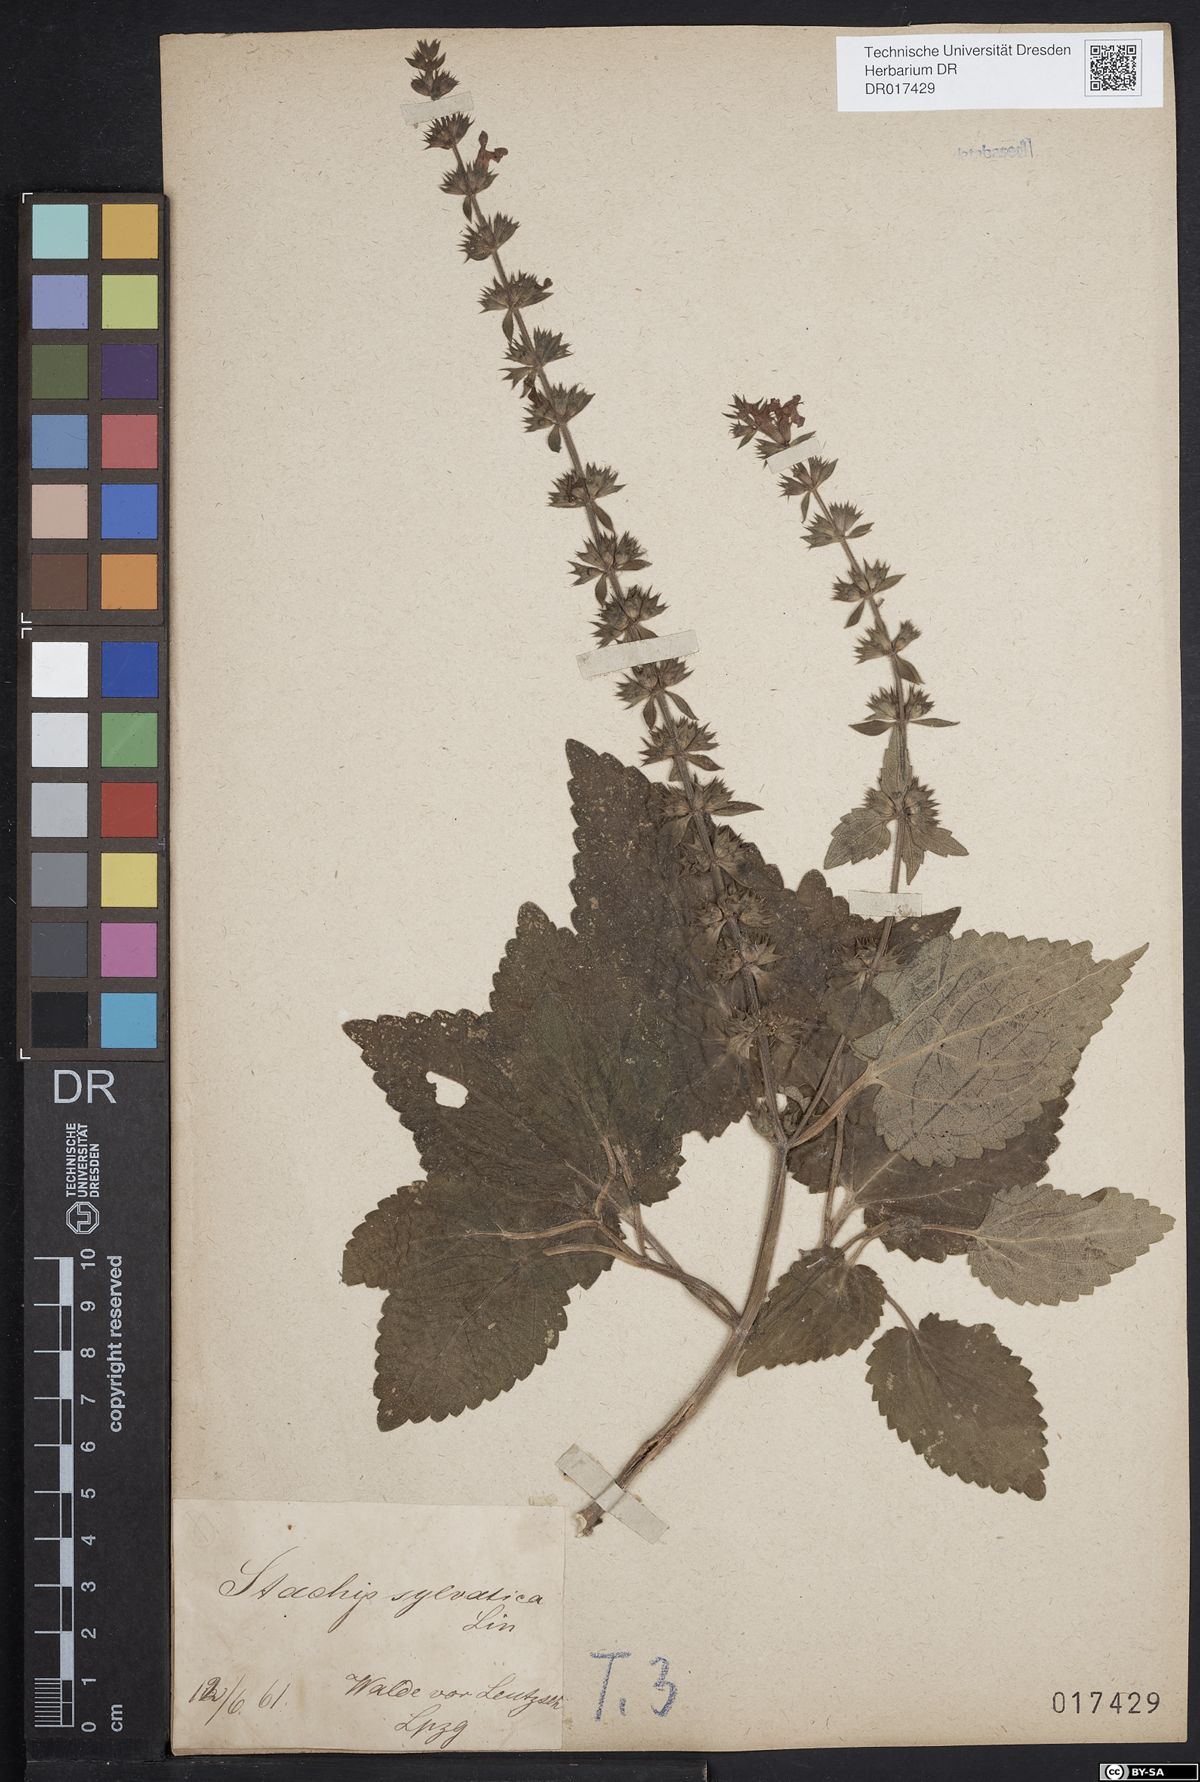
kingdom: Plantae
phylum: Tracheophyta
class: Magnoliopsida
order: Lamiales
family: Lamiaceae
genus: Stachys
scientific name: Stachys sylvatica
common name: Hedge woundwort
